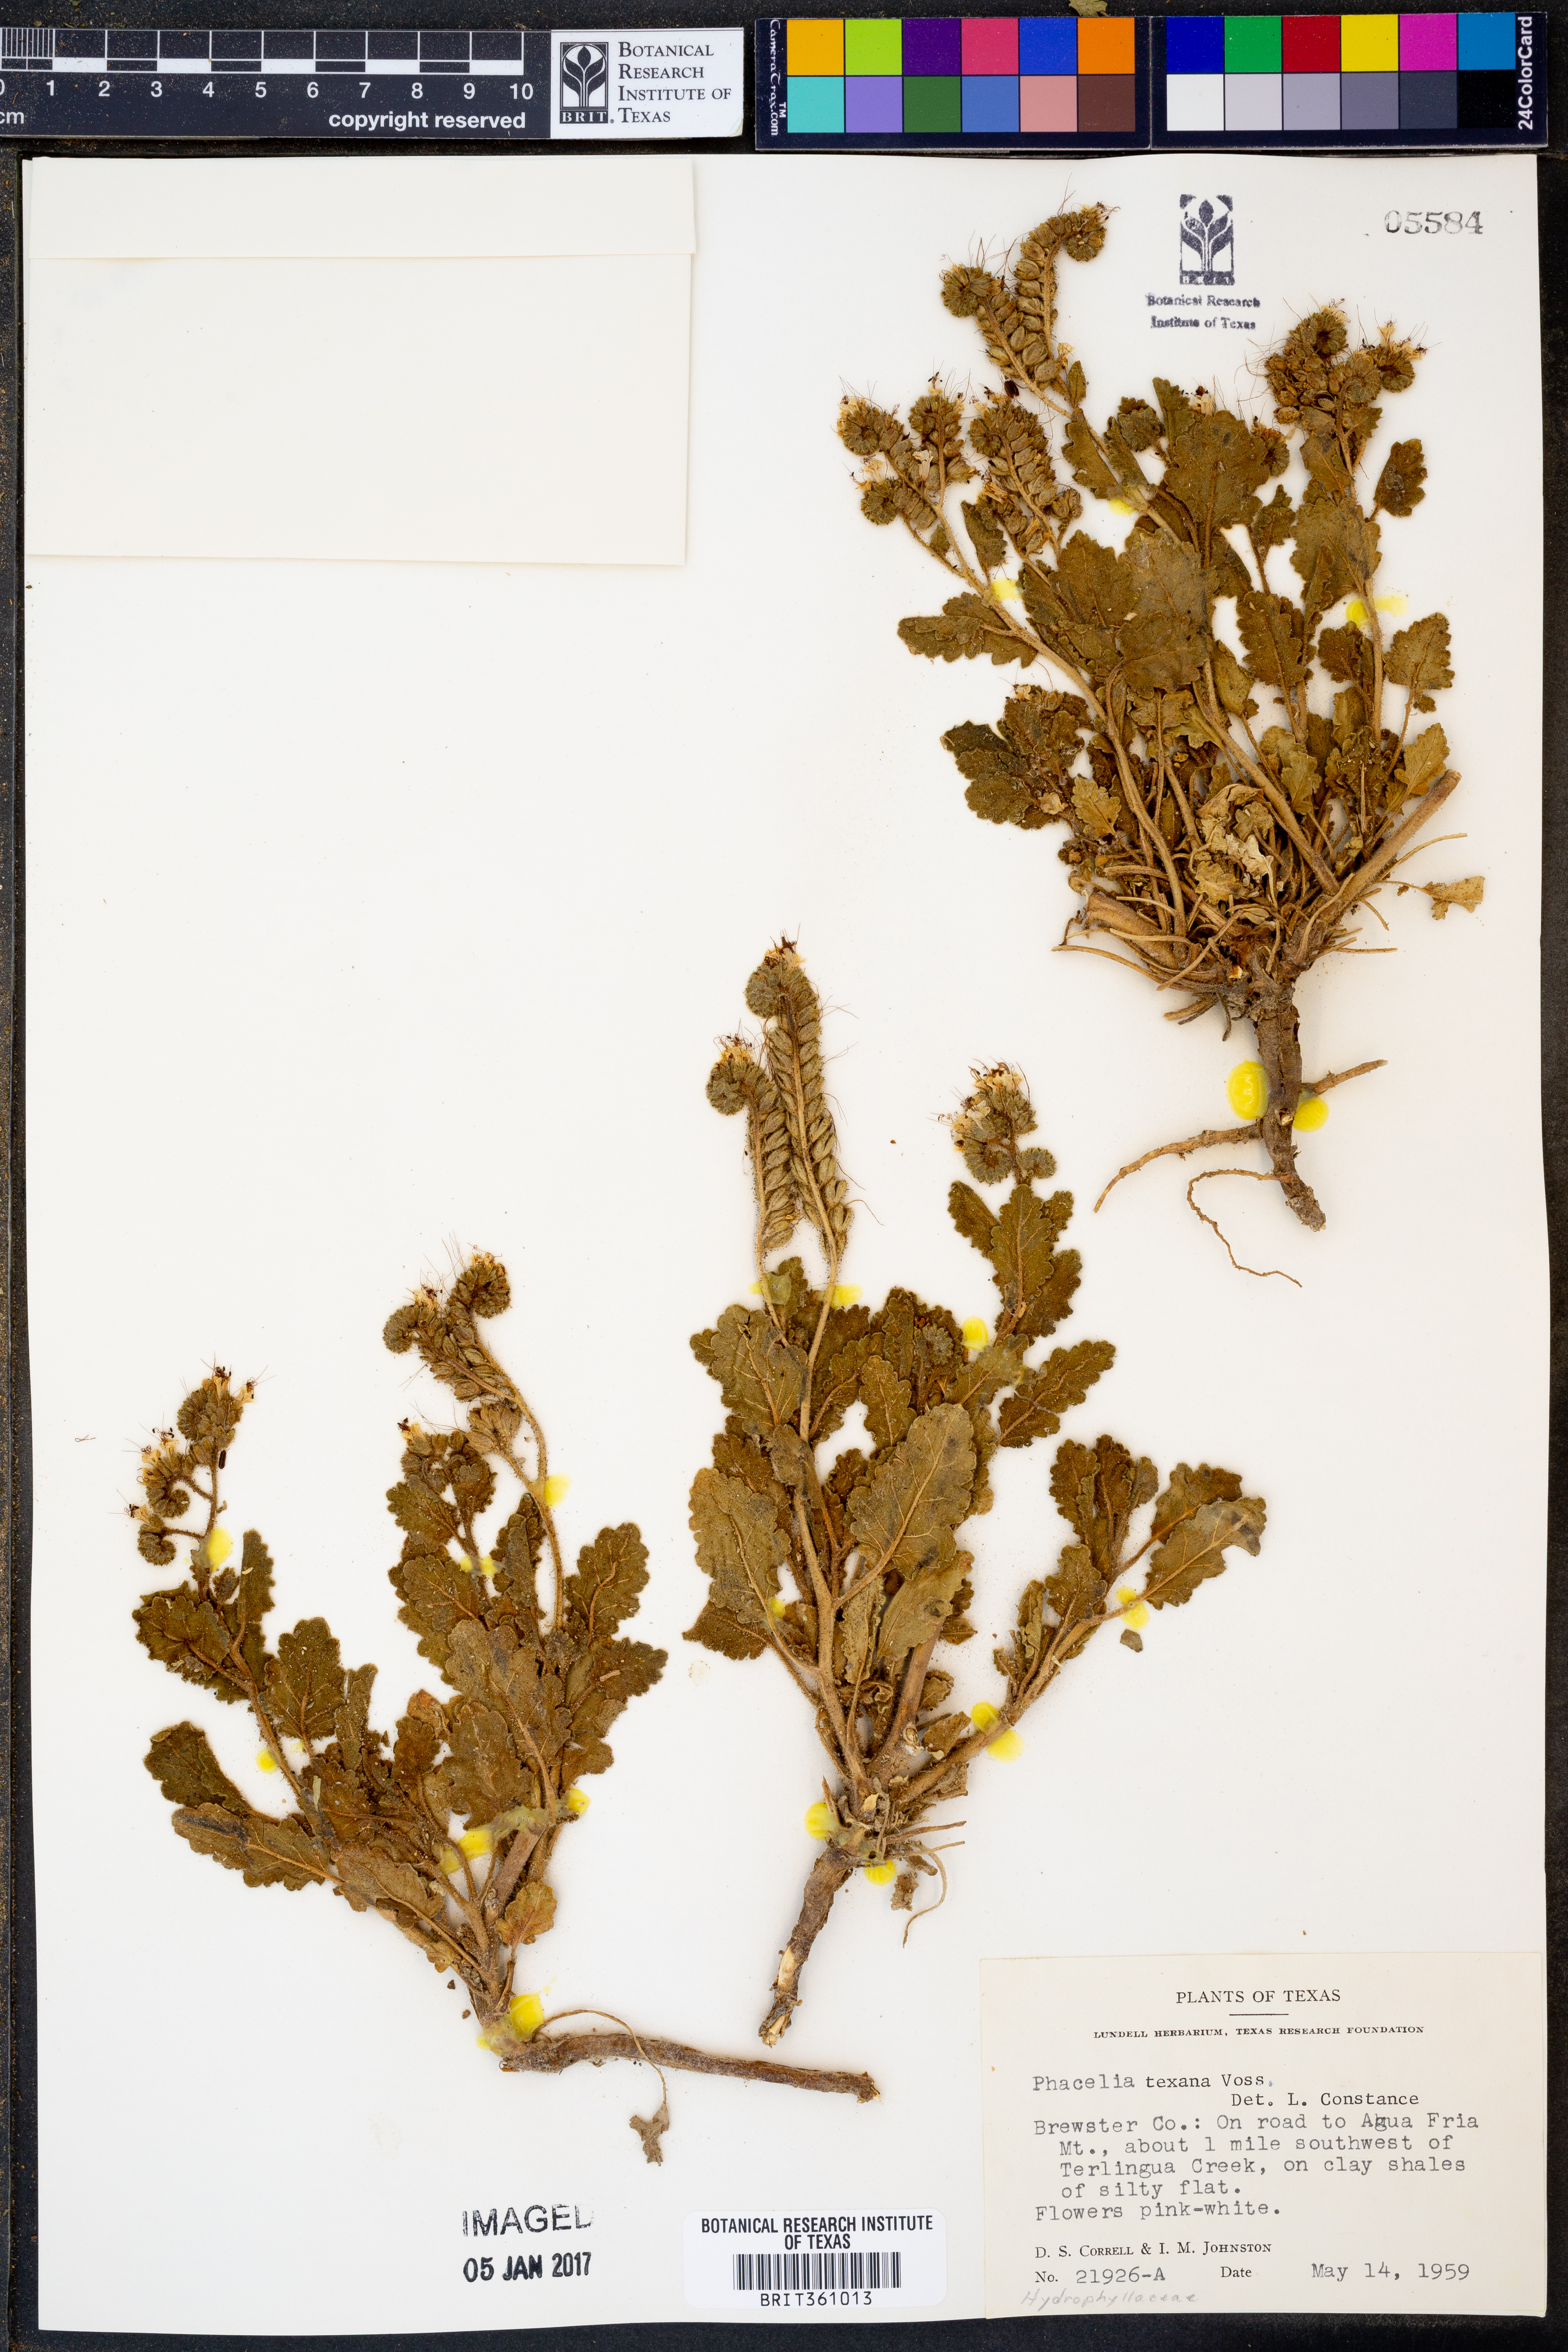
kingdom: Plantae
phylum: Tracheophyta
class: Magnoliopsida
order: Boraginales
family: Hydrophyllaceae
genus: Phacelia
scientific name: Phacelia integrifolia
